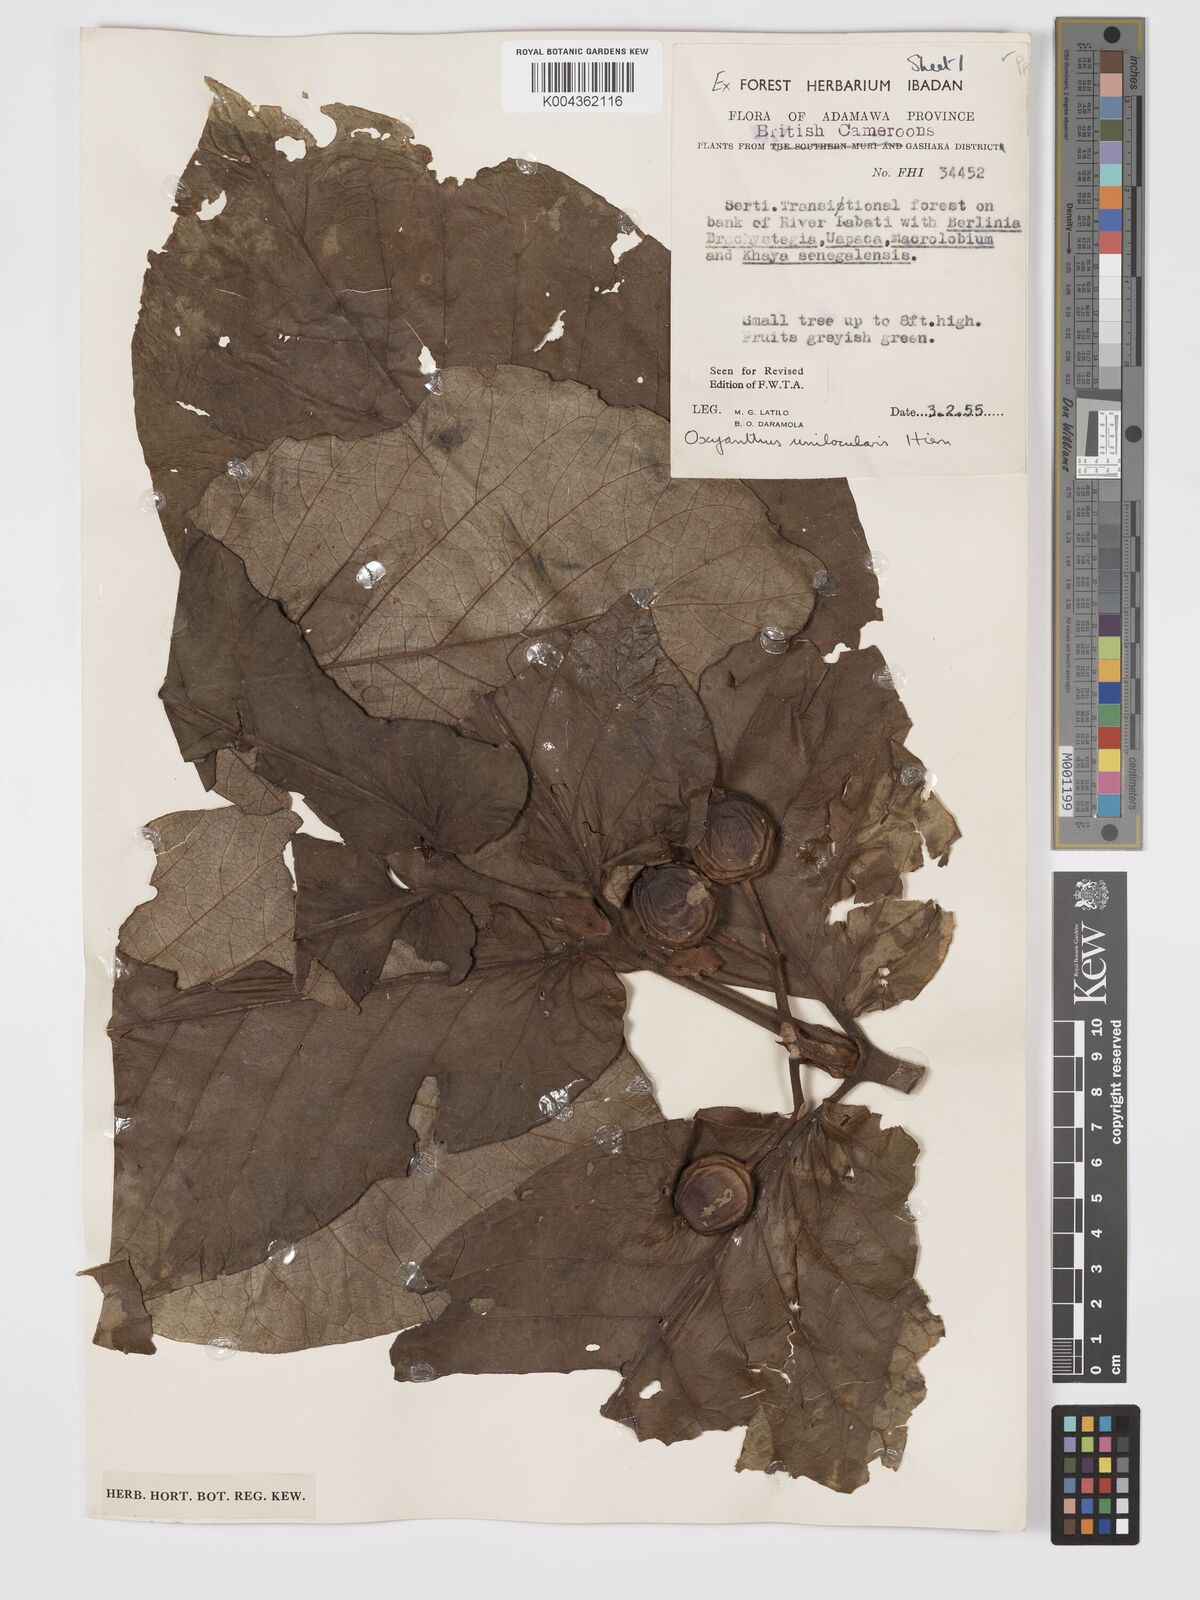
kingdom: Plantae
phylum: Tracheophyta
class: Magnoliopsida
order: Gentianales
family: Rubiaceae
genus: Oxyanthus
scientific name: Oxyanthus unilocularis
